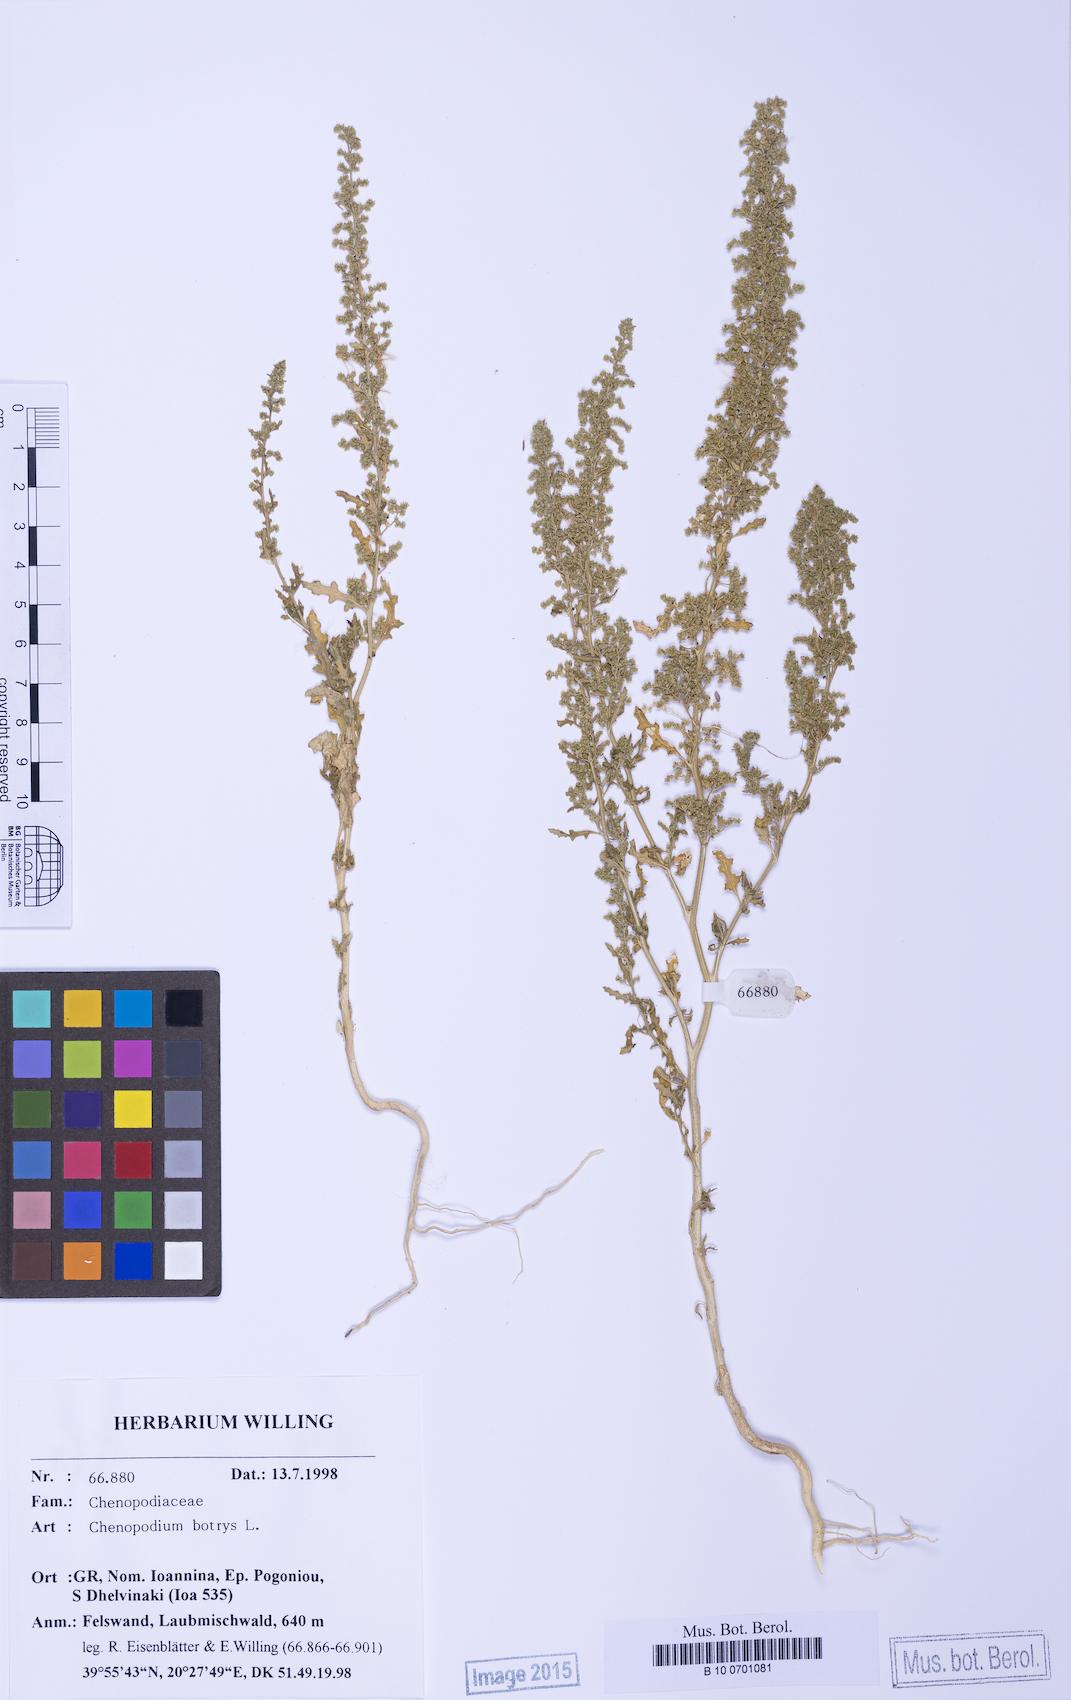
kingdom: Plantae
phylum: Tracheophyta
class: Magnoliopsida
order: Caryophyllales
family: Amaranthaceae
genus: Dysphania
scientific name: Dysphania botrys
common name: Feather-geranium
